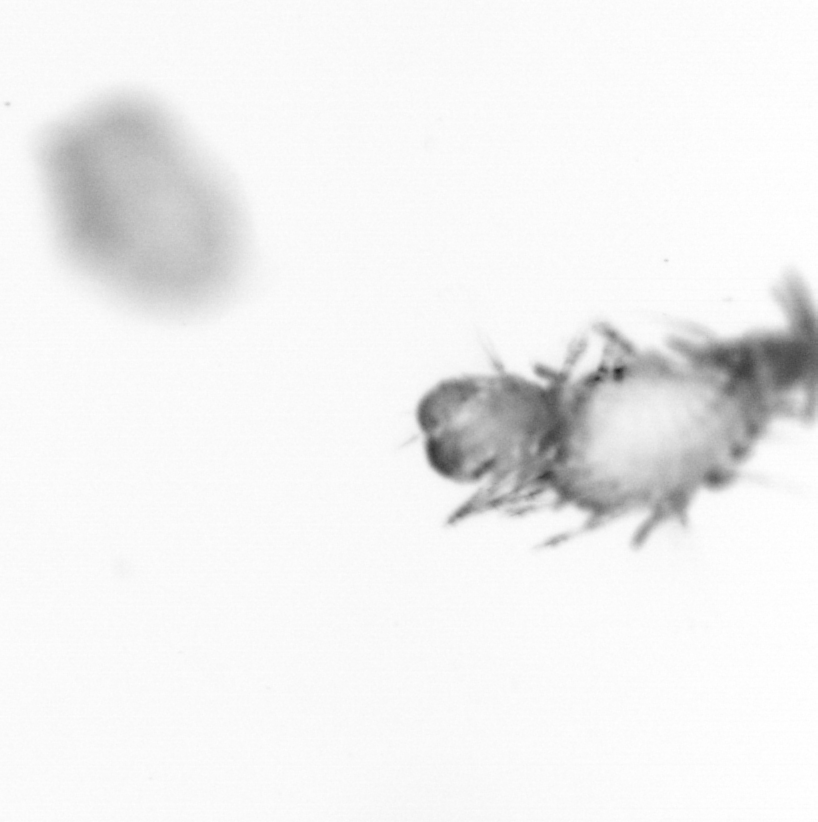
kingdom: Animalia
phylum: Annelida
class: Polychaeta
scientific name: Polychaeta
